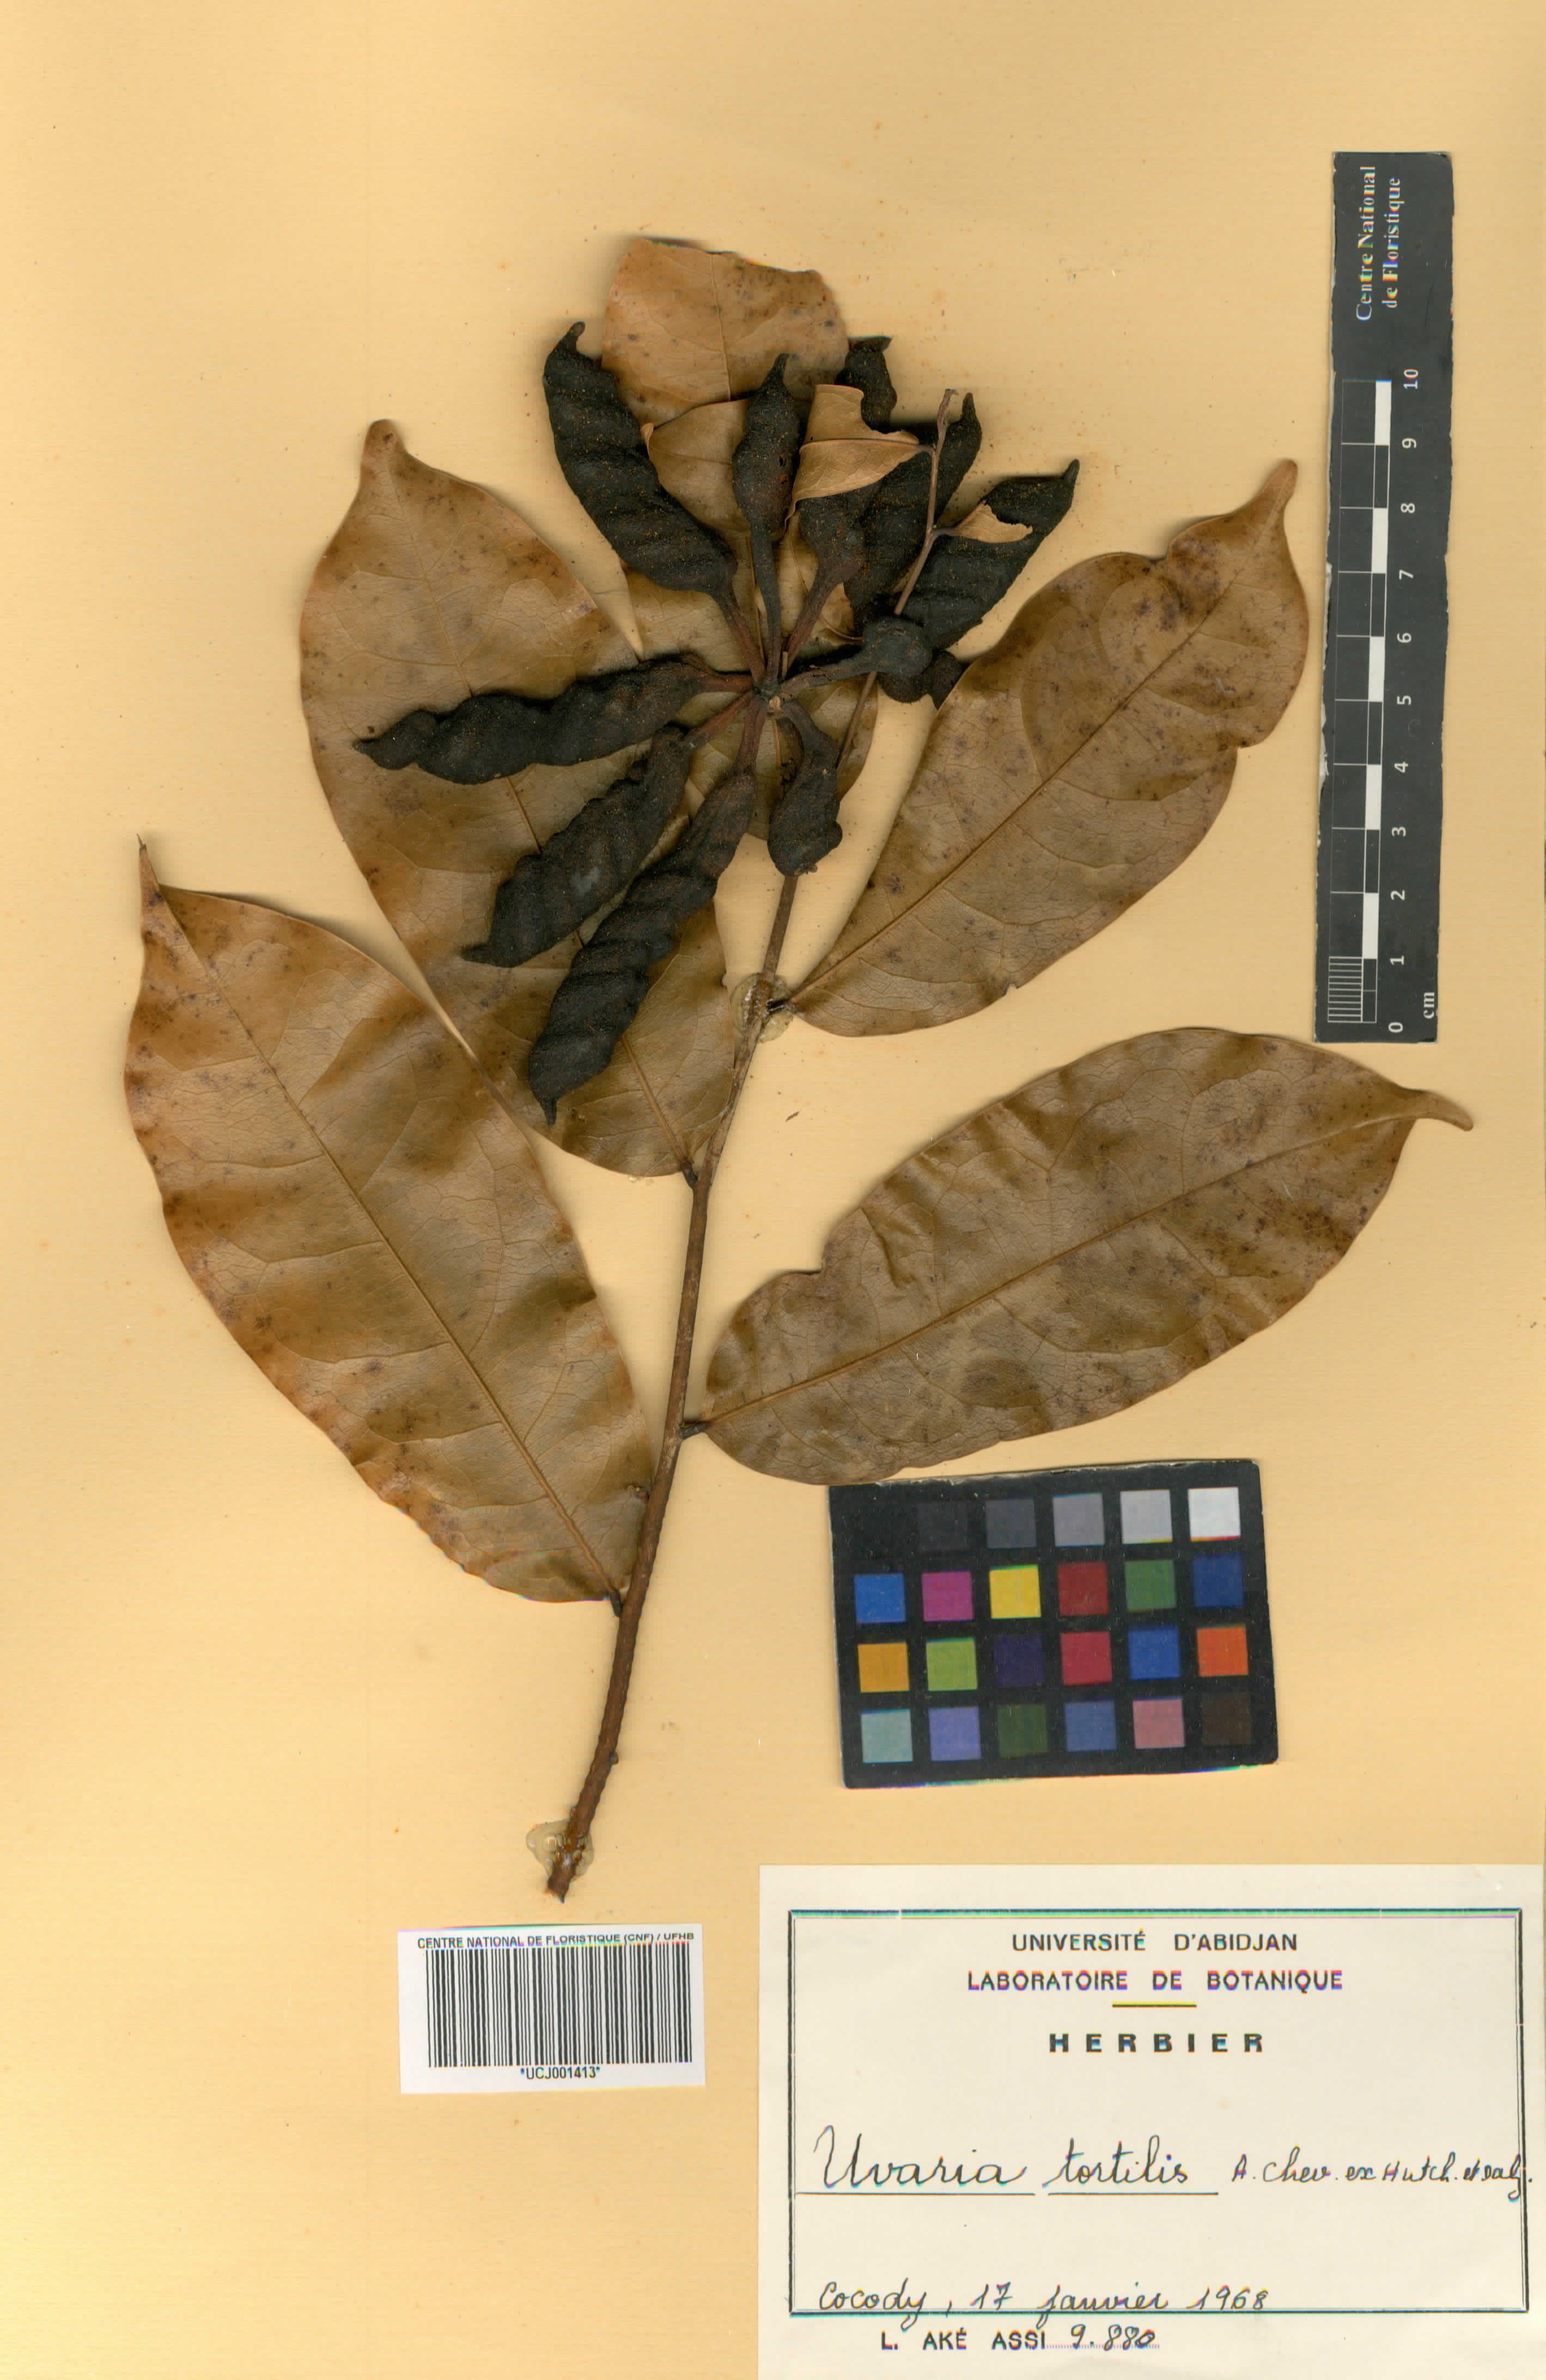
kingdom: Plantae
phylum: Tracheophyta
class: Magnoliopsida
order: Magnoliales
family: Annonaceae
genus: Uvaria
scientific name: Uvaria tortilis
